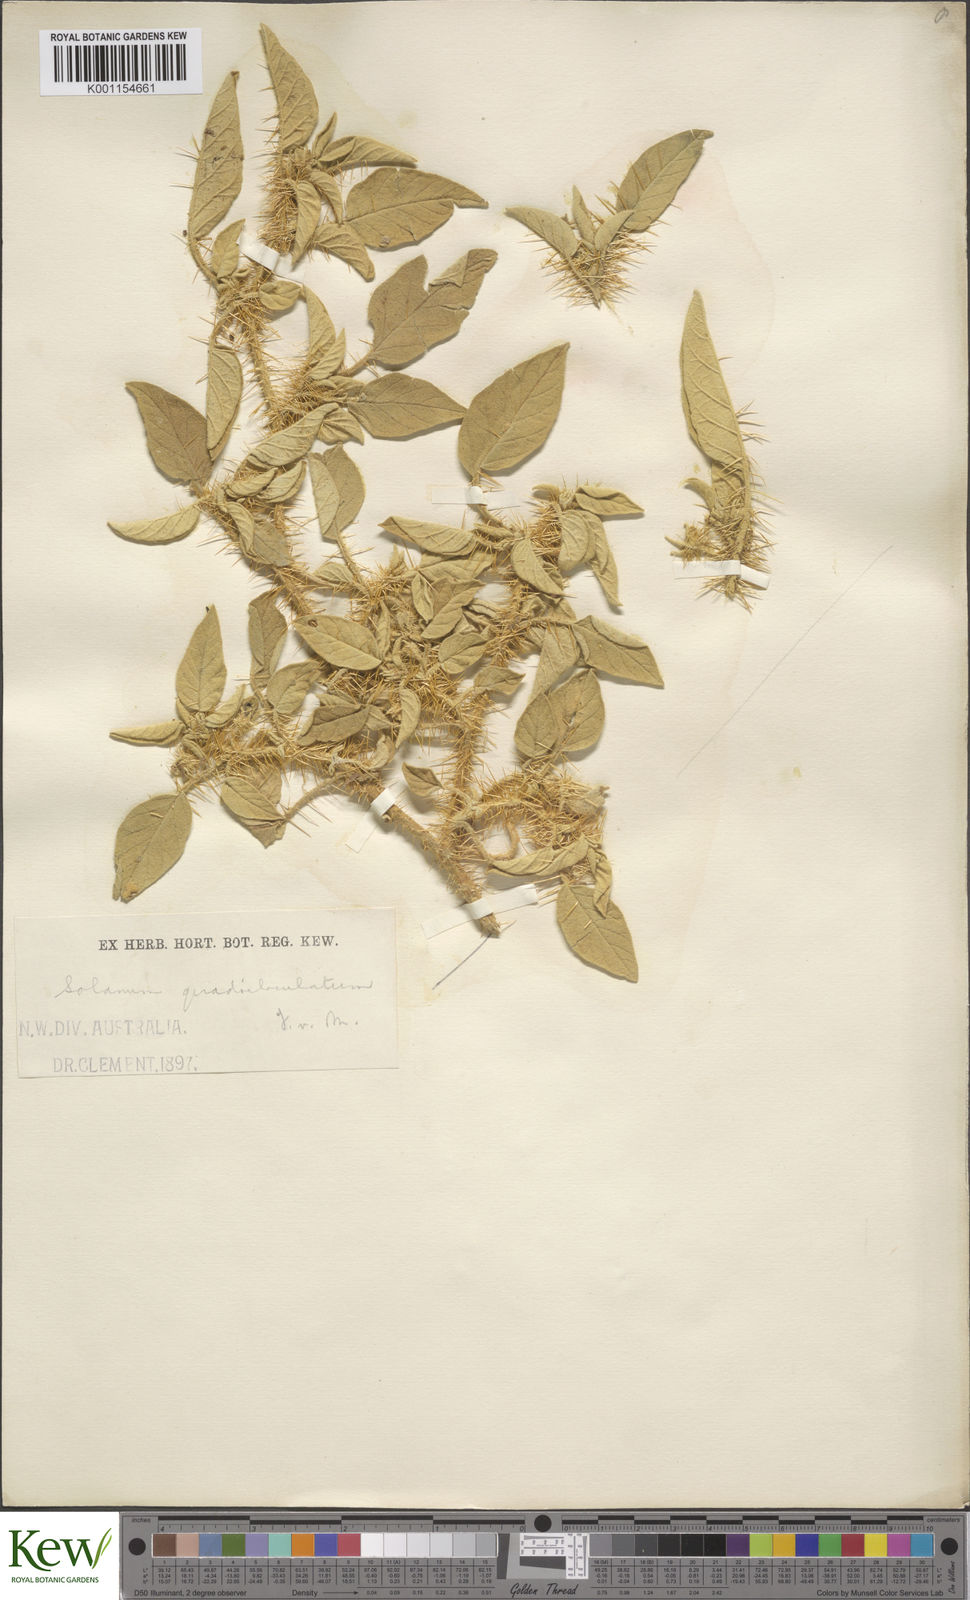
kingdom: Plantae
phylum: Tracheophyta
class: Magnoliopsida
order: Solanales
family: Solanaceae
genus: Solanum
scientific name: Solanum horridum
